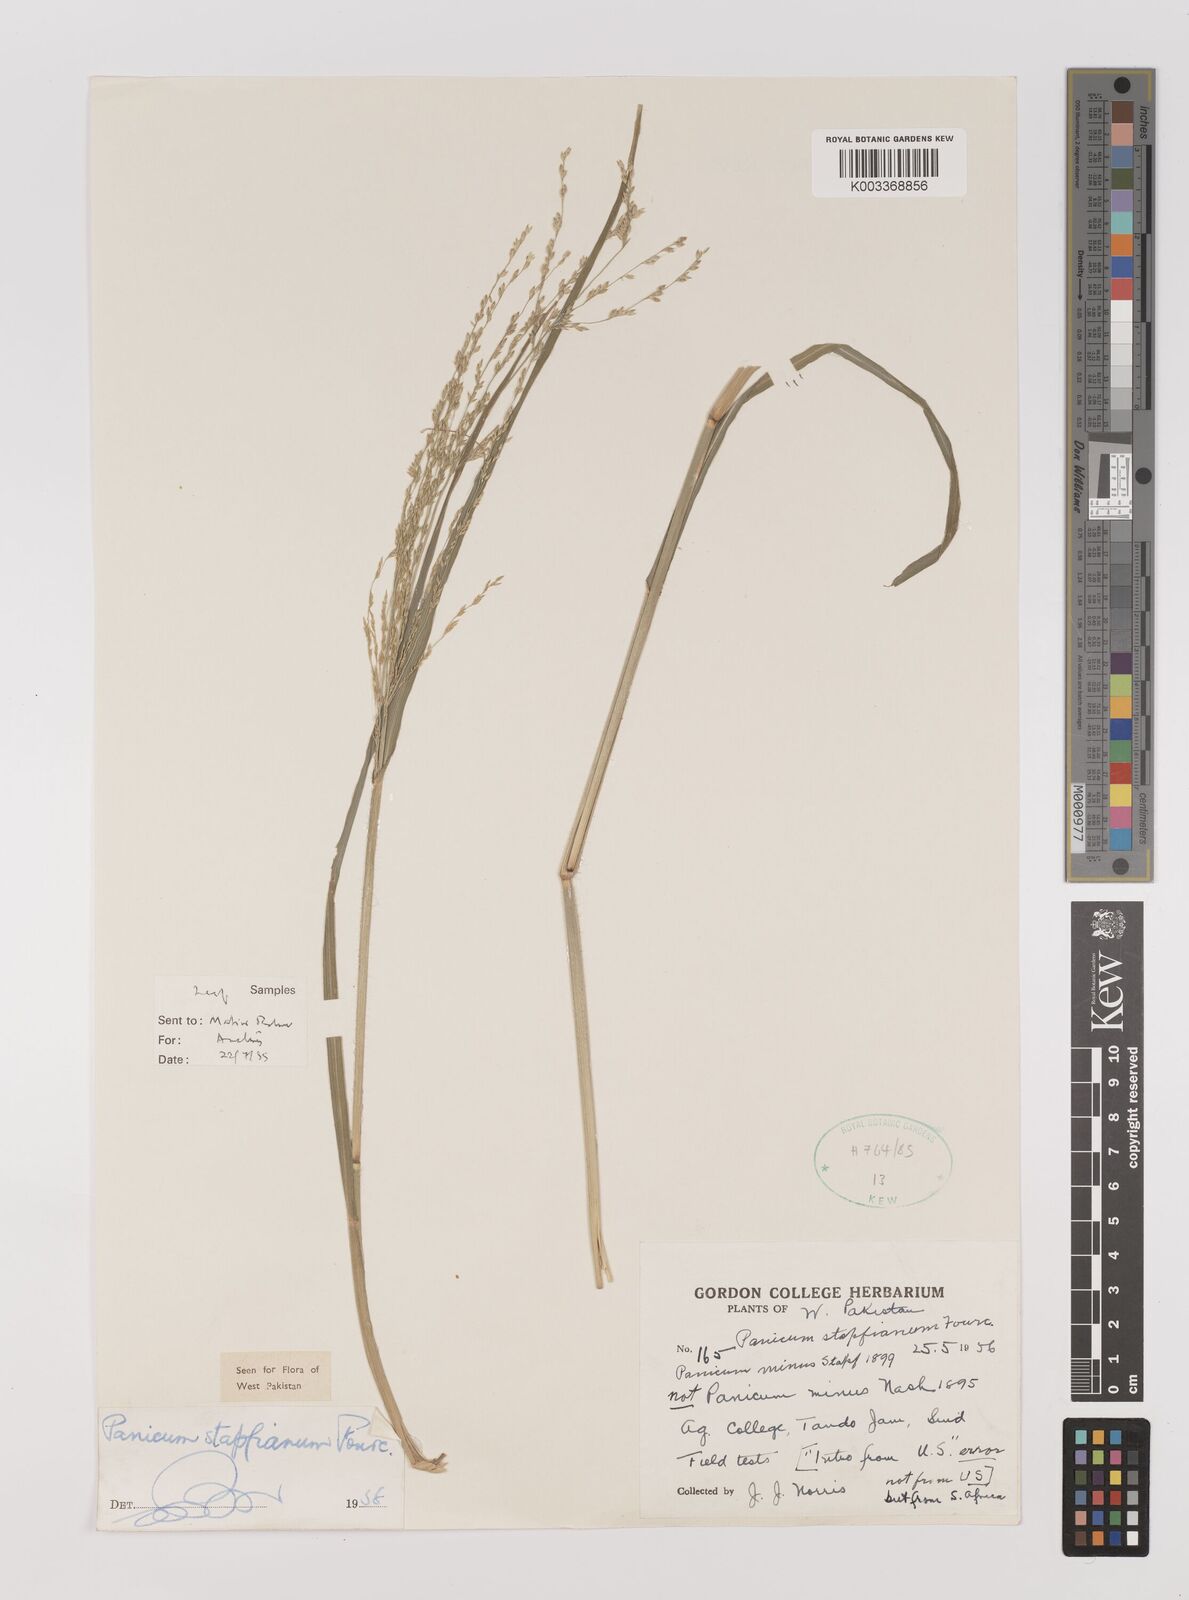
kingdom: Plantae
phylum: Tracheophyta
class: Liliopsida
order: Poales
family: Poaceae
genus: Panicum
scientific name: Panicum stapfianum
